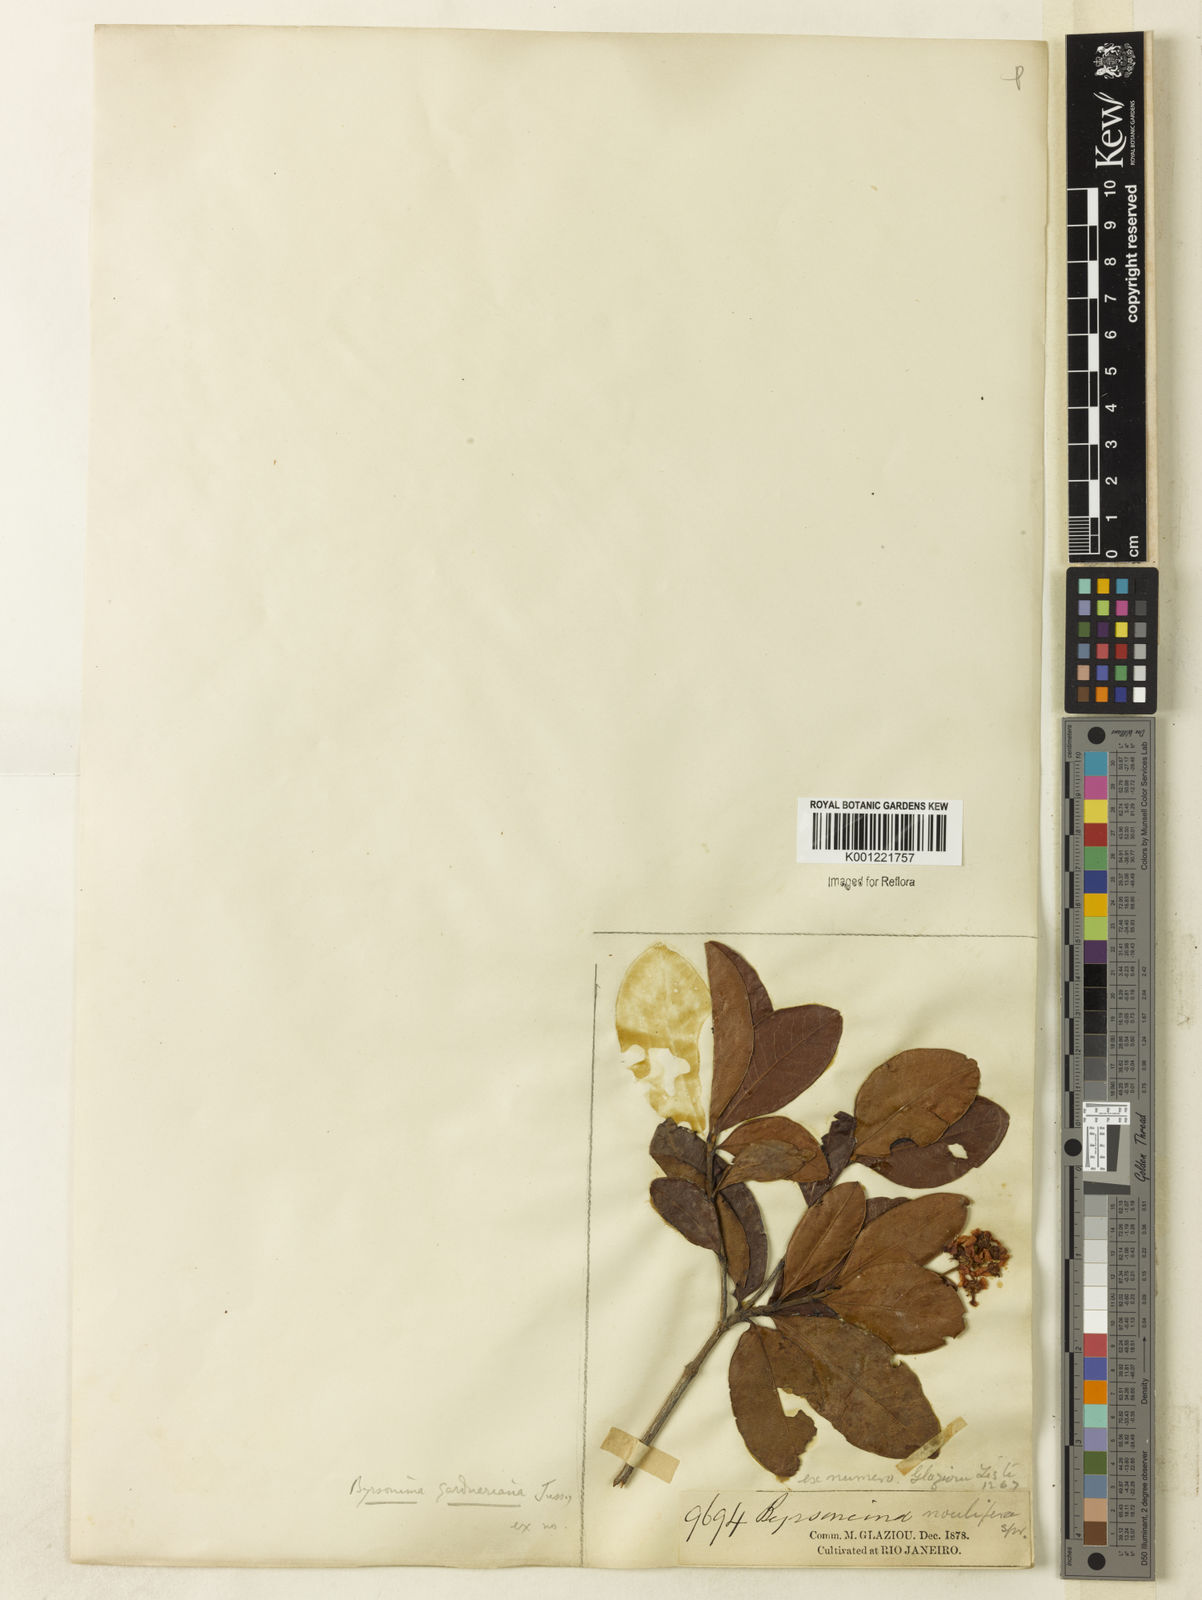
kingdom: Plantae
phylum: Tracheophyta
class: Magnoliopsida
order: Malpighiales
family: Malpighiaceae
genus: Byrsonima
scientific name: Byrsonima gardneriana
